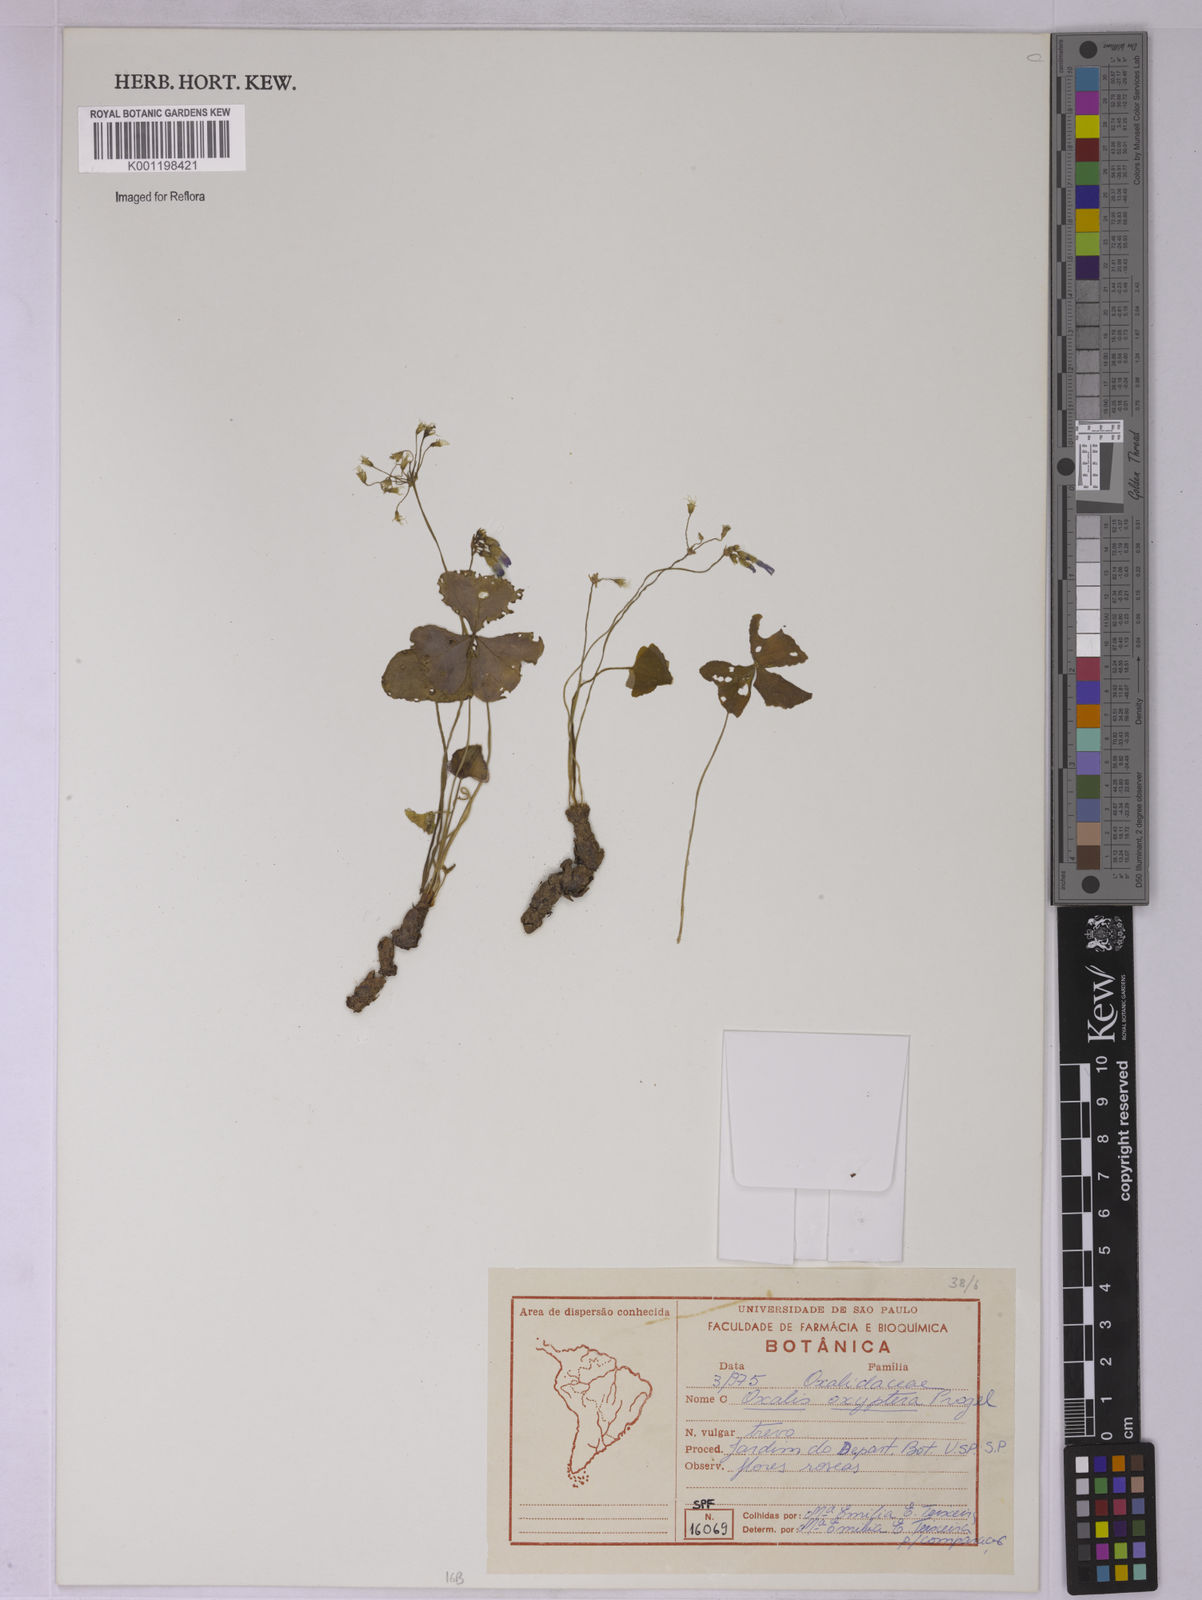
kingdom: Plantae
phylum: Tracheophyta
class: Magnoliopsida
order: Oxalidales
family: Oxalidaceae
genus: Oxalis
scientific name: Oxalis triangularis
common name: Wood sorrel
